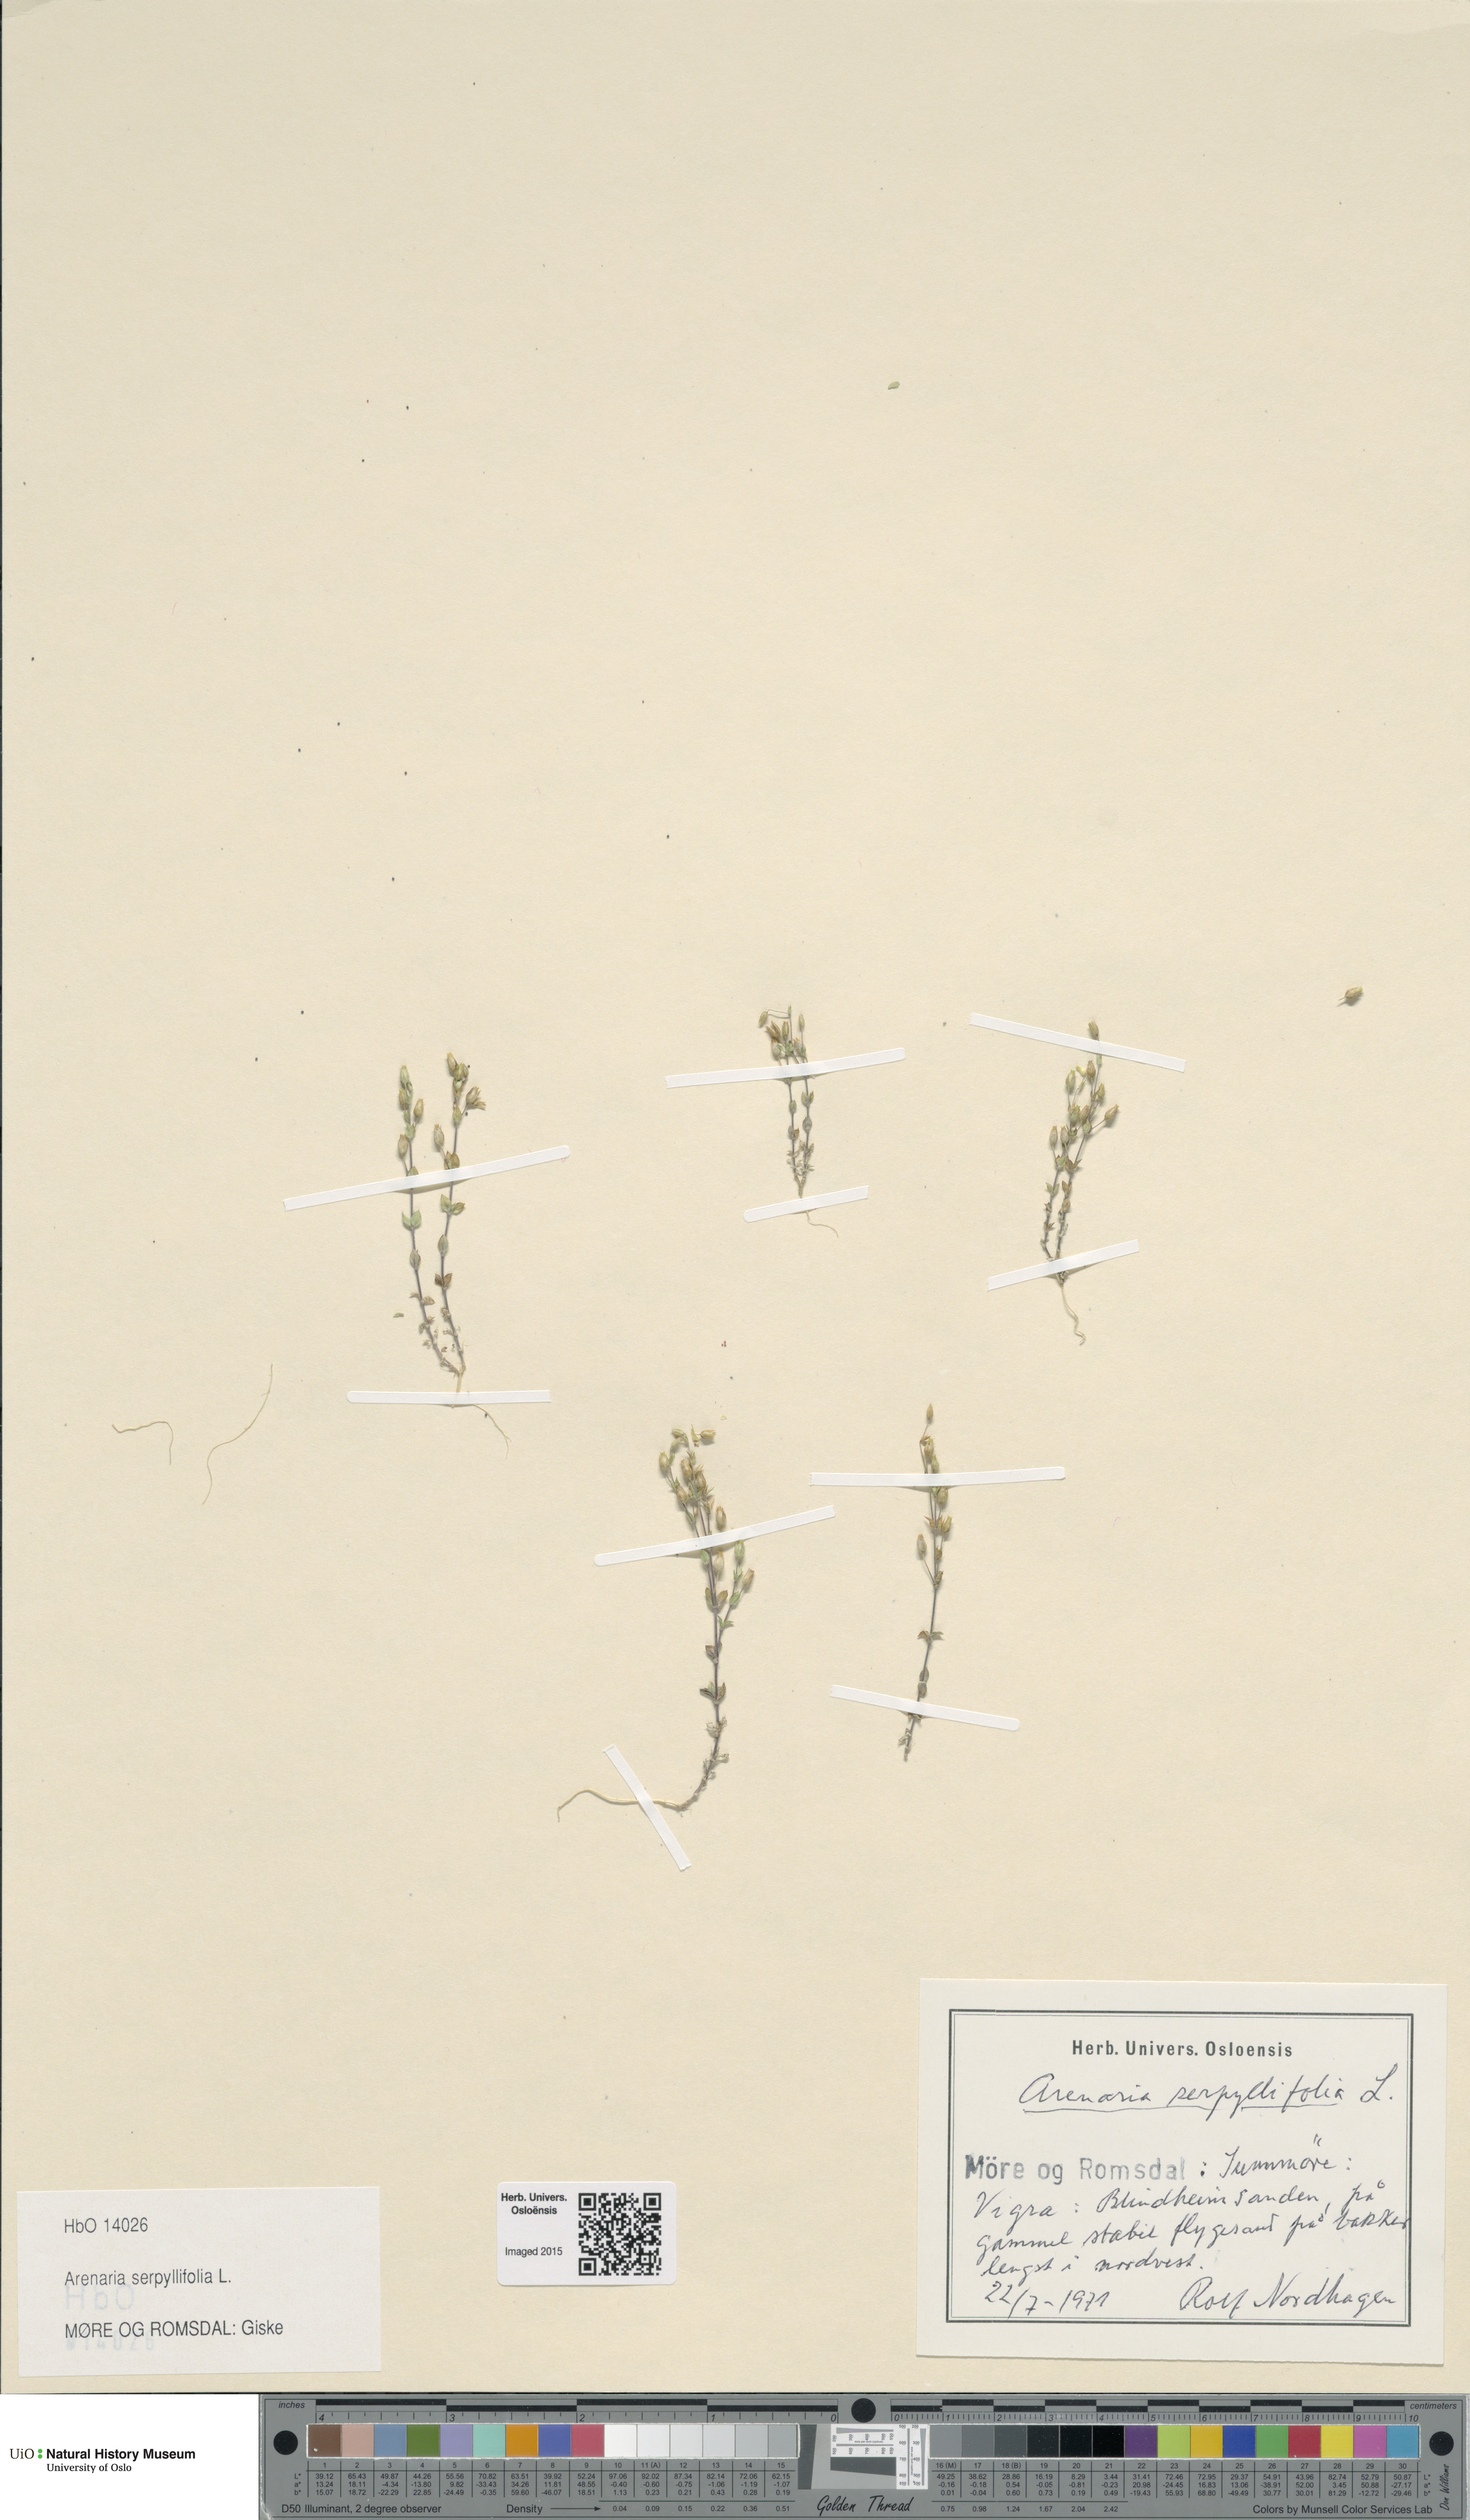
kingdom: Plantae
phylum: Tracheophyta
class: Magnoliopsida
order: Caryophyllales
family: Caryophyllaceae
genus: Arenaria
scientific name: Arenaria serpyllifolia
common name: Thyme-leaved sandwort
